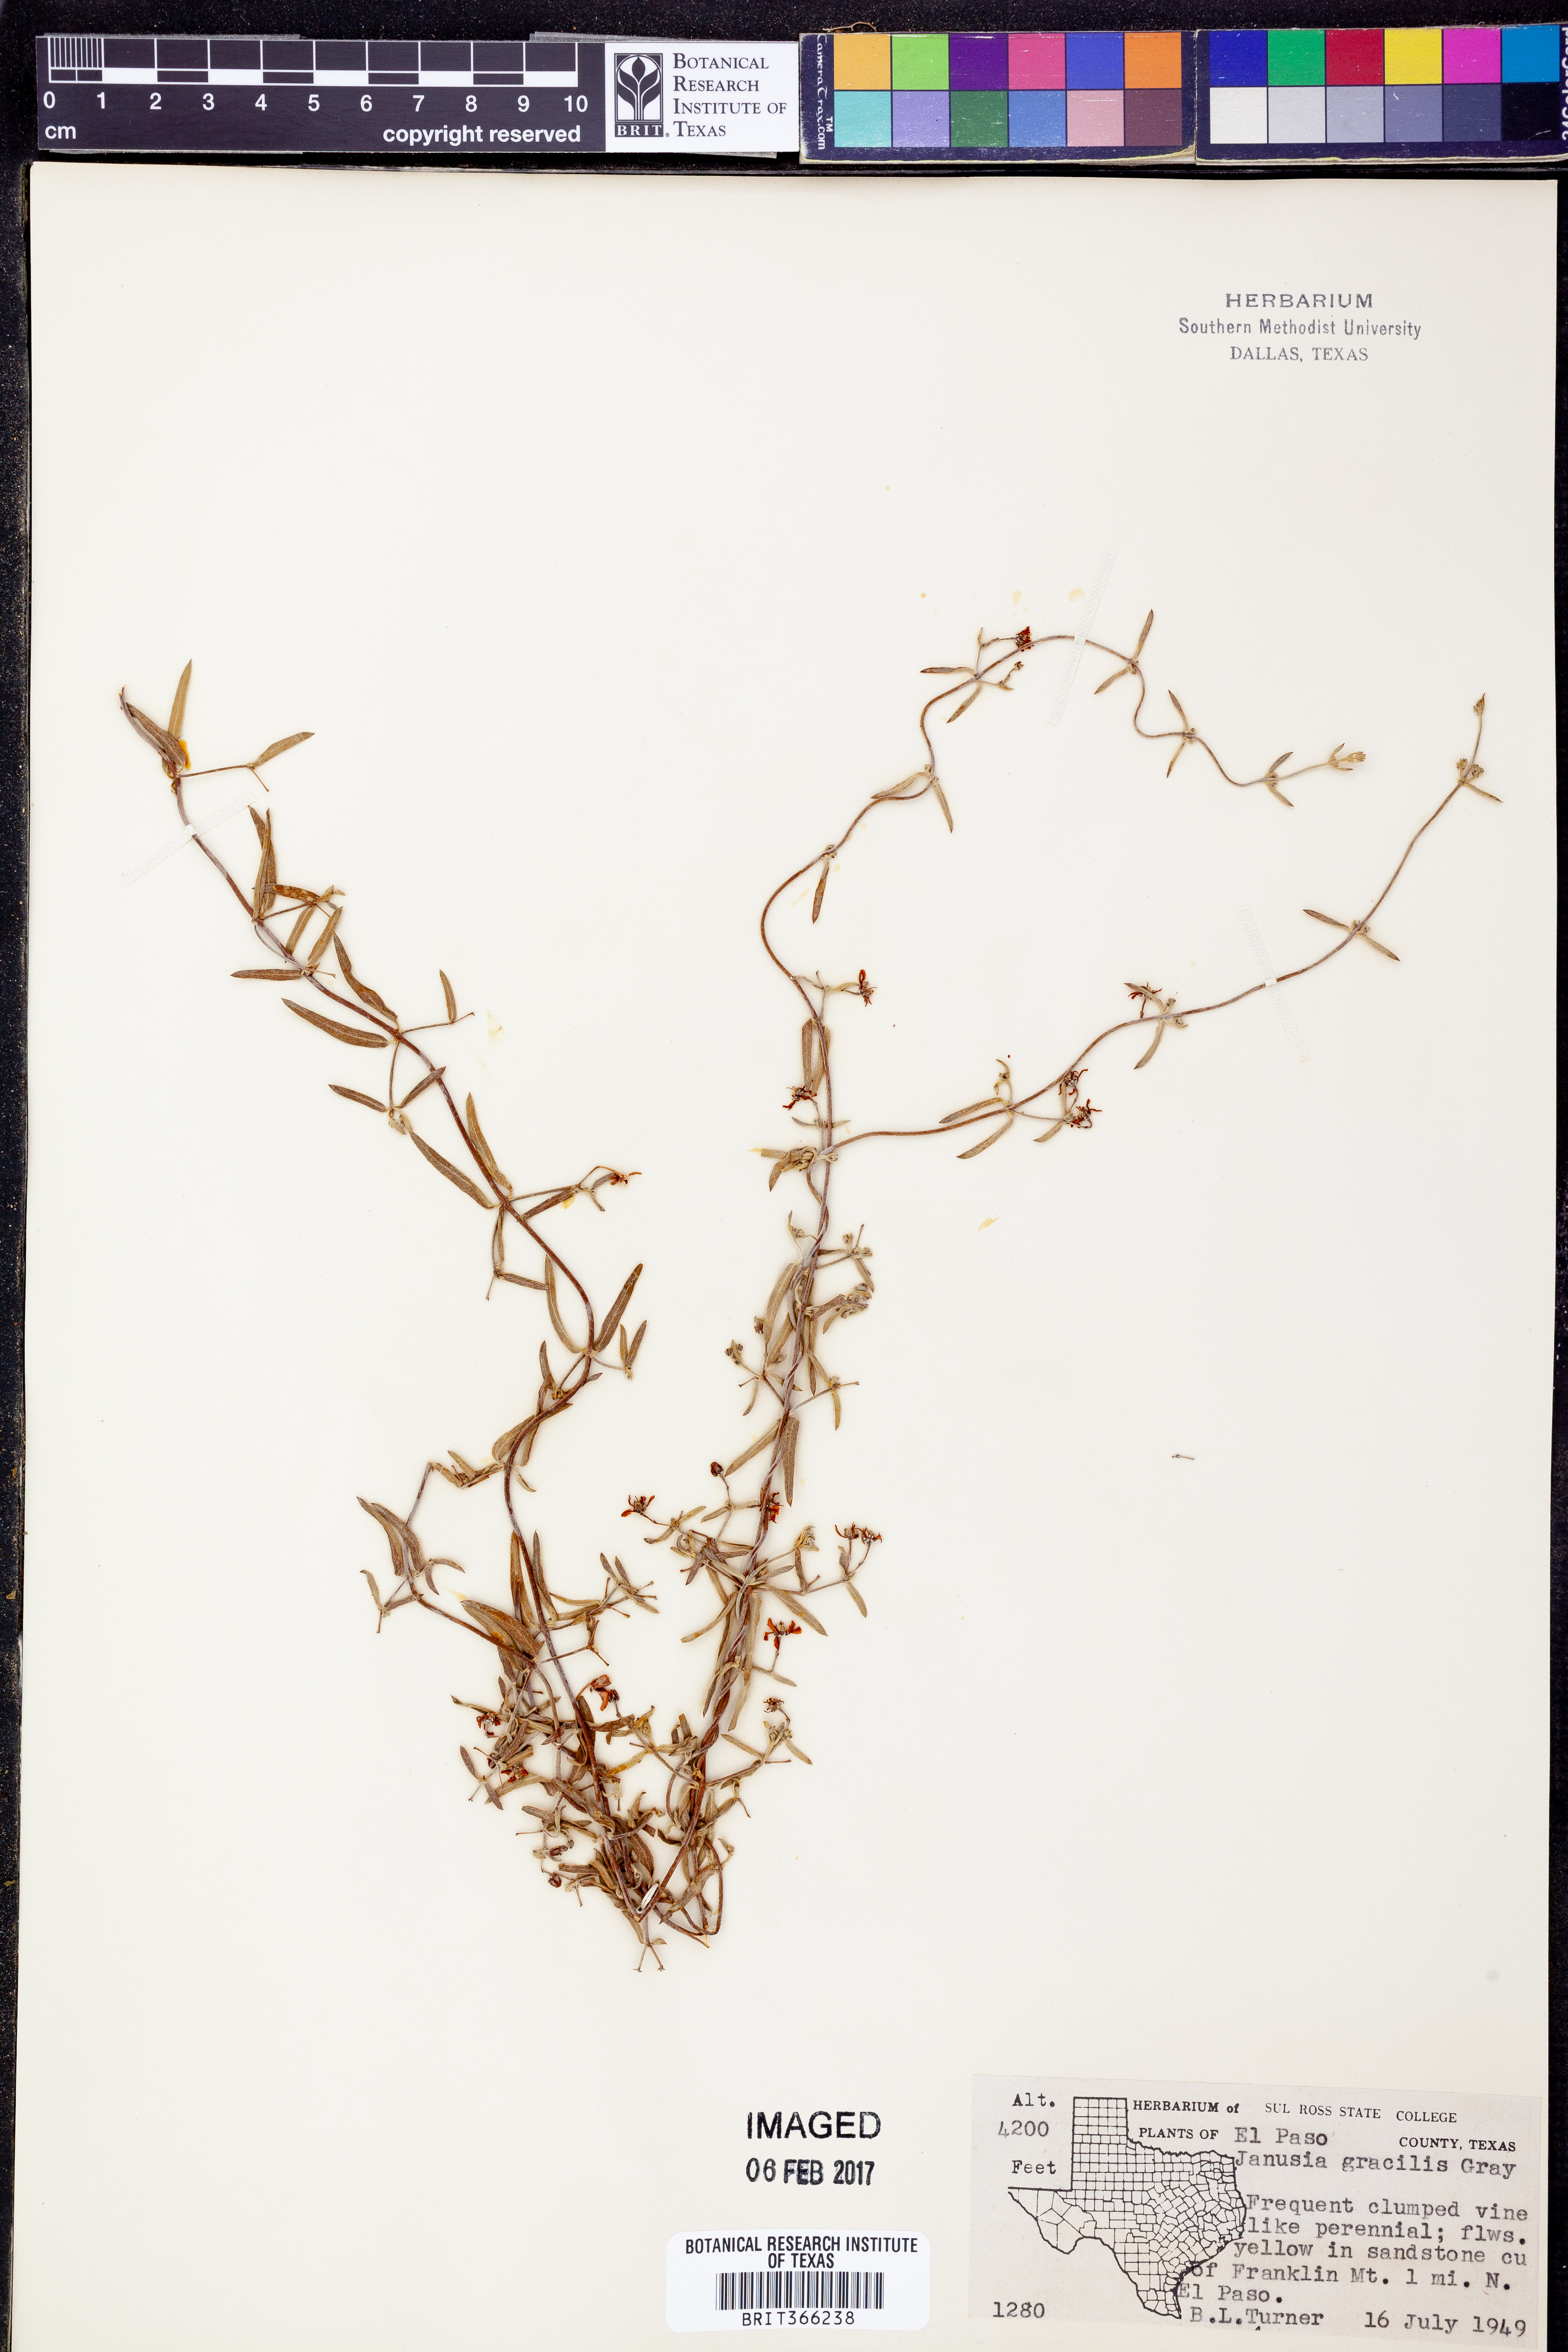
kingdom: Plantae
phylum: Tracheophyta
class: Magnoliopsida
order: Malpighiales
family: Malpighiaceae
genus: Cottsia
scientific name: Cottsia gracilis
